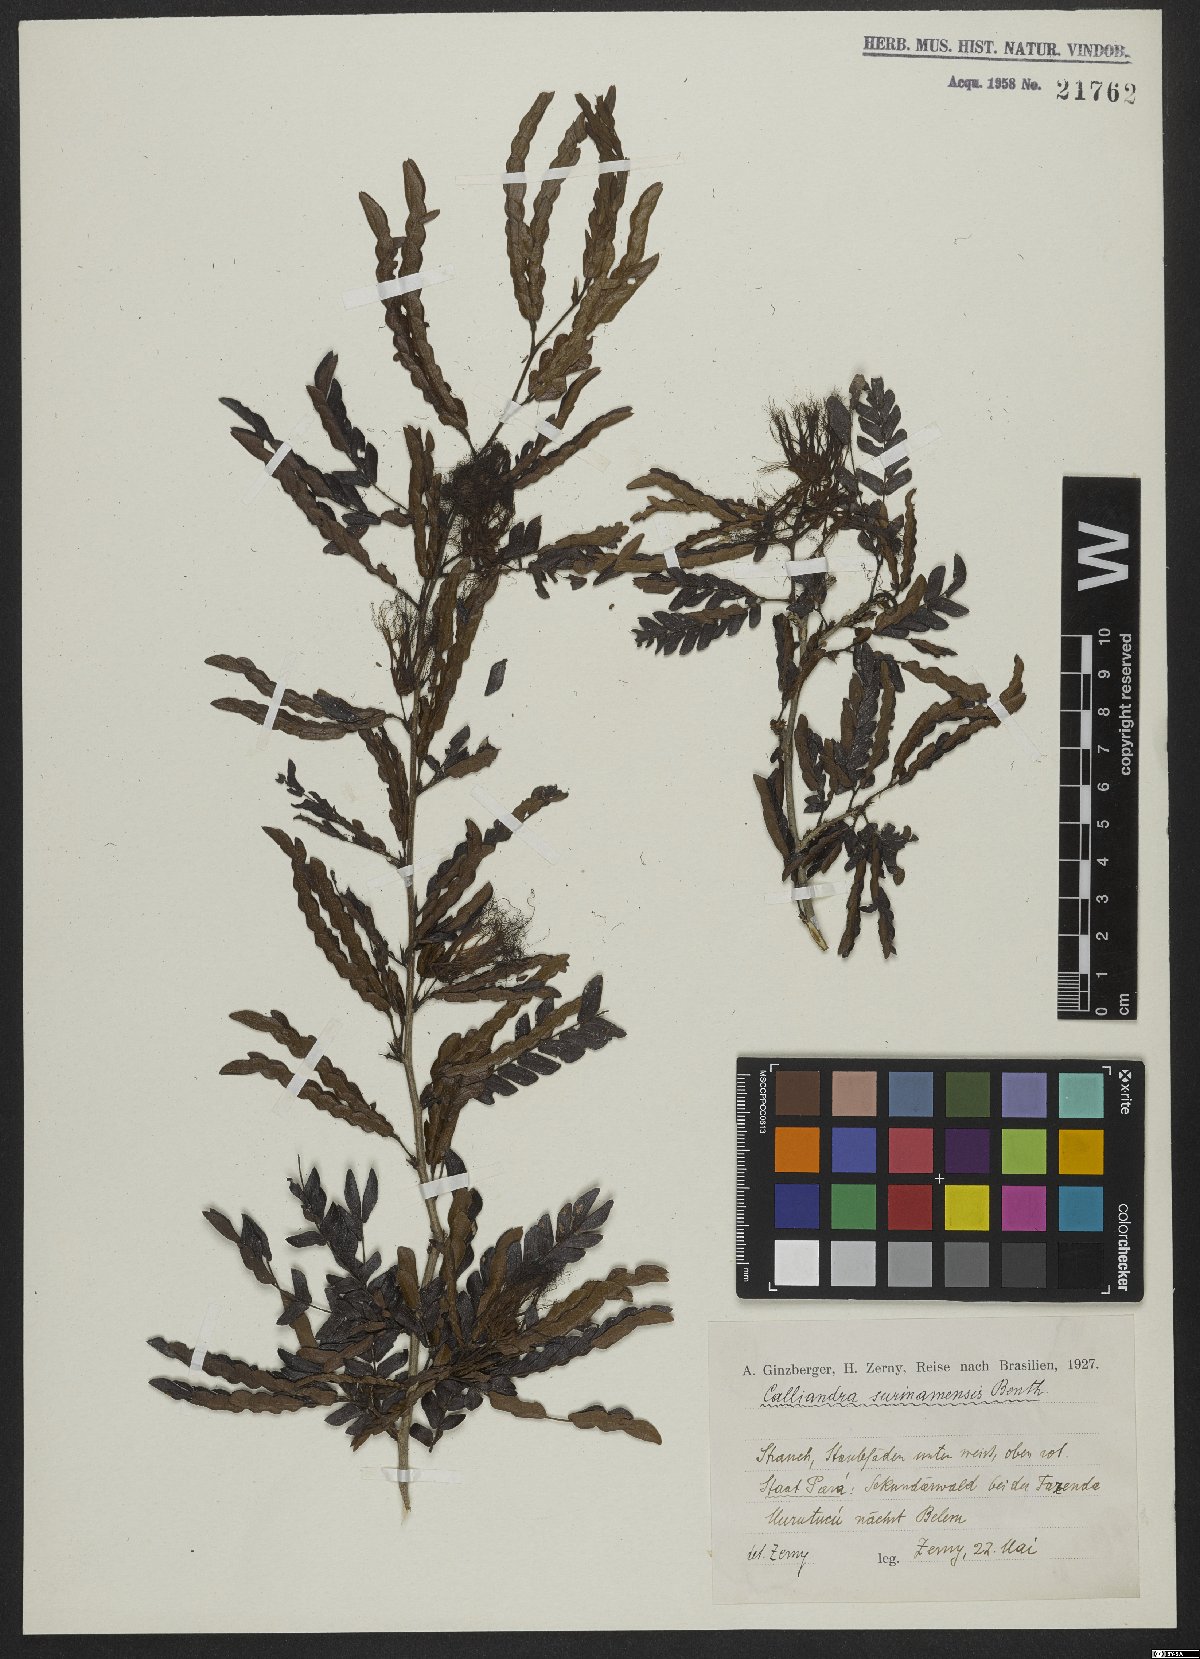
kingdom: Plantae
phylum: Tracheophyta
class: Magnoliopsida
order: Fabales
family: Fabaceae
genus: Calliandra
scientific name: Calliandra surinamensis
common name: Pink powder puff
